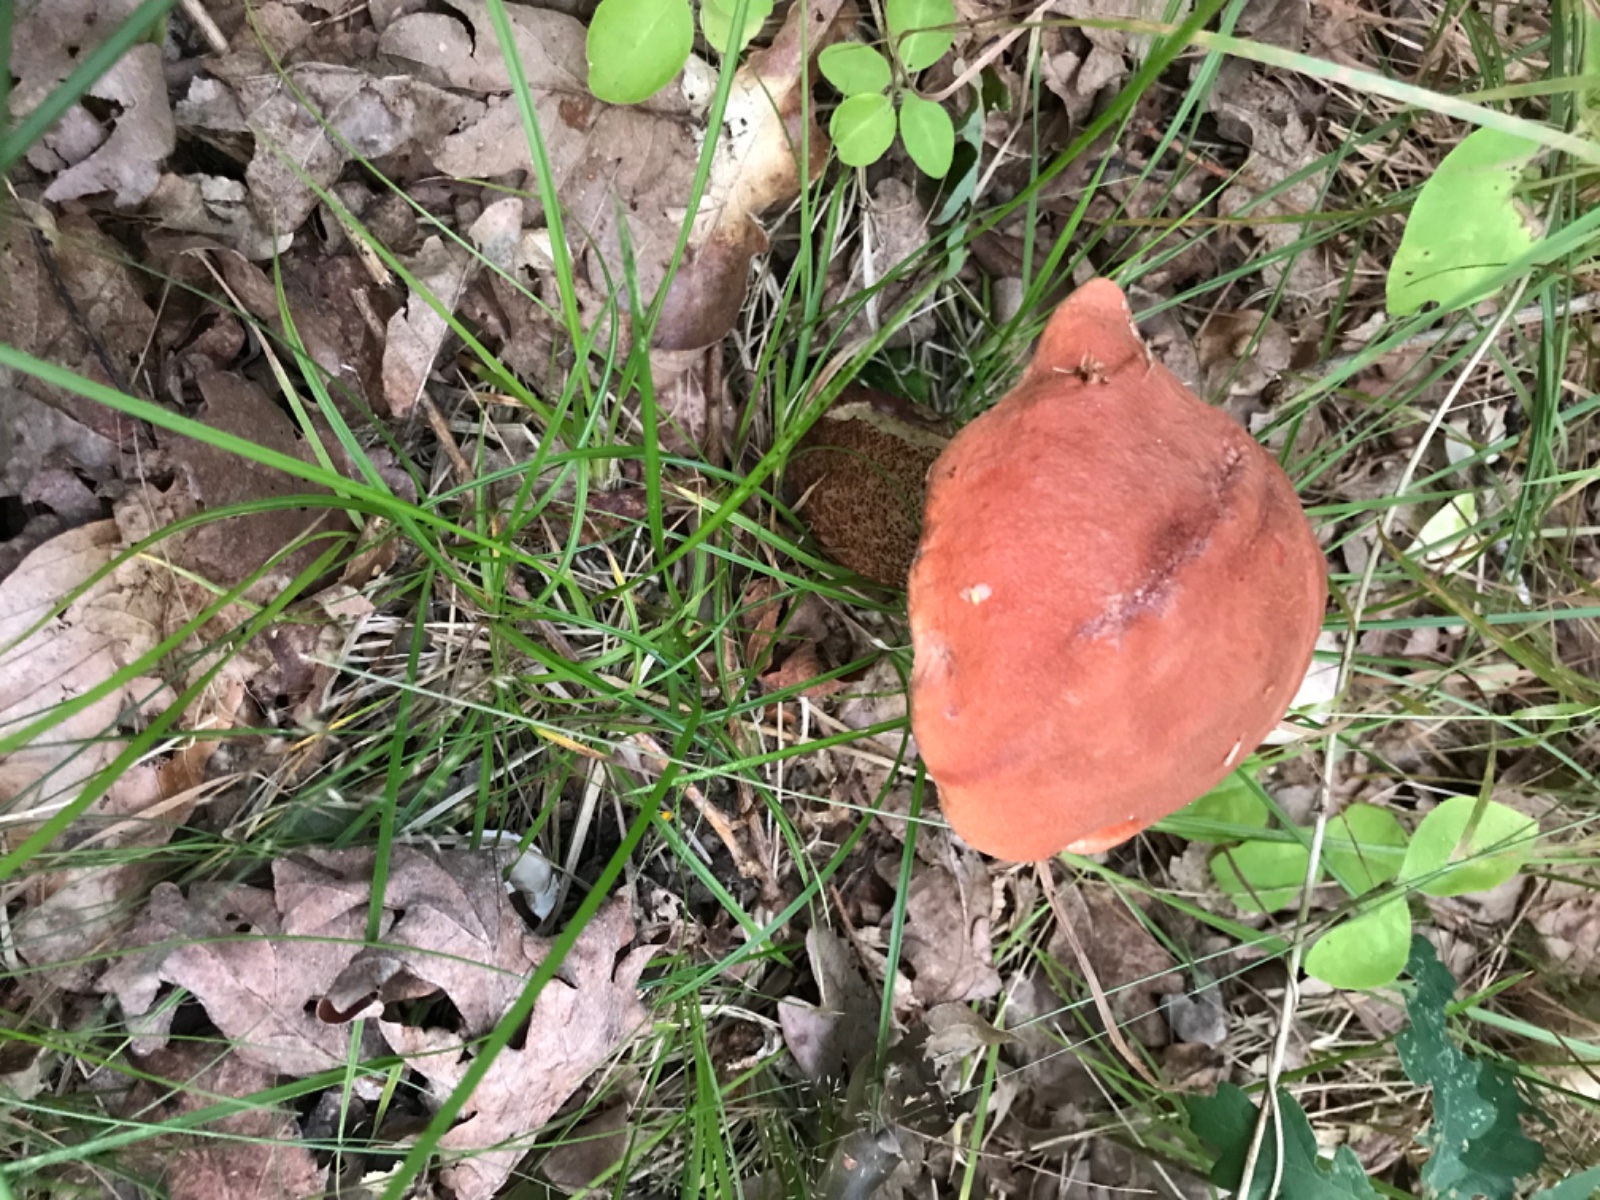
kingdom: Fungi
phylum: Basidiomycota
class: Agaricomycetes
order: Boletales
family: Boletaceae
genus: Leccinum
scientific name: Leccinum aurantiacum
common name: rustrød skælrørhat
